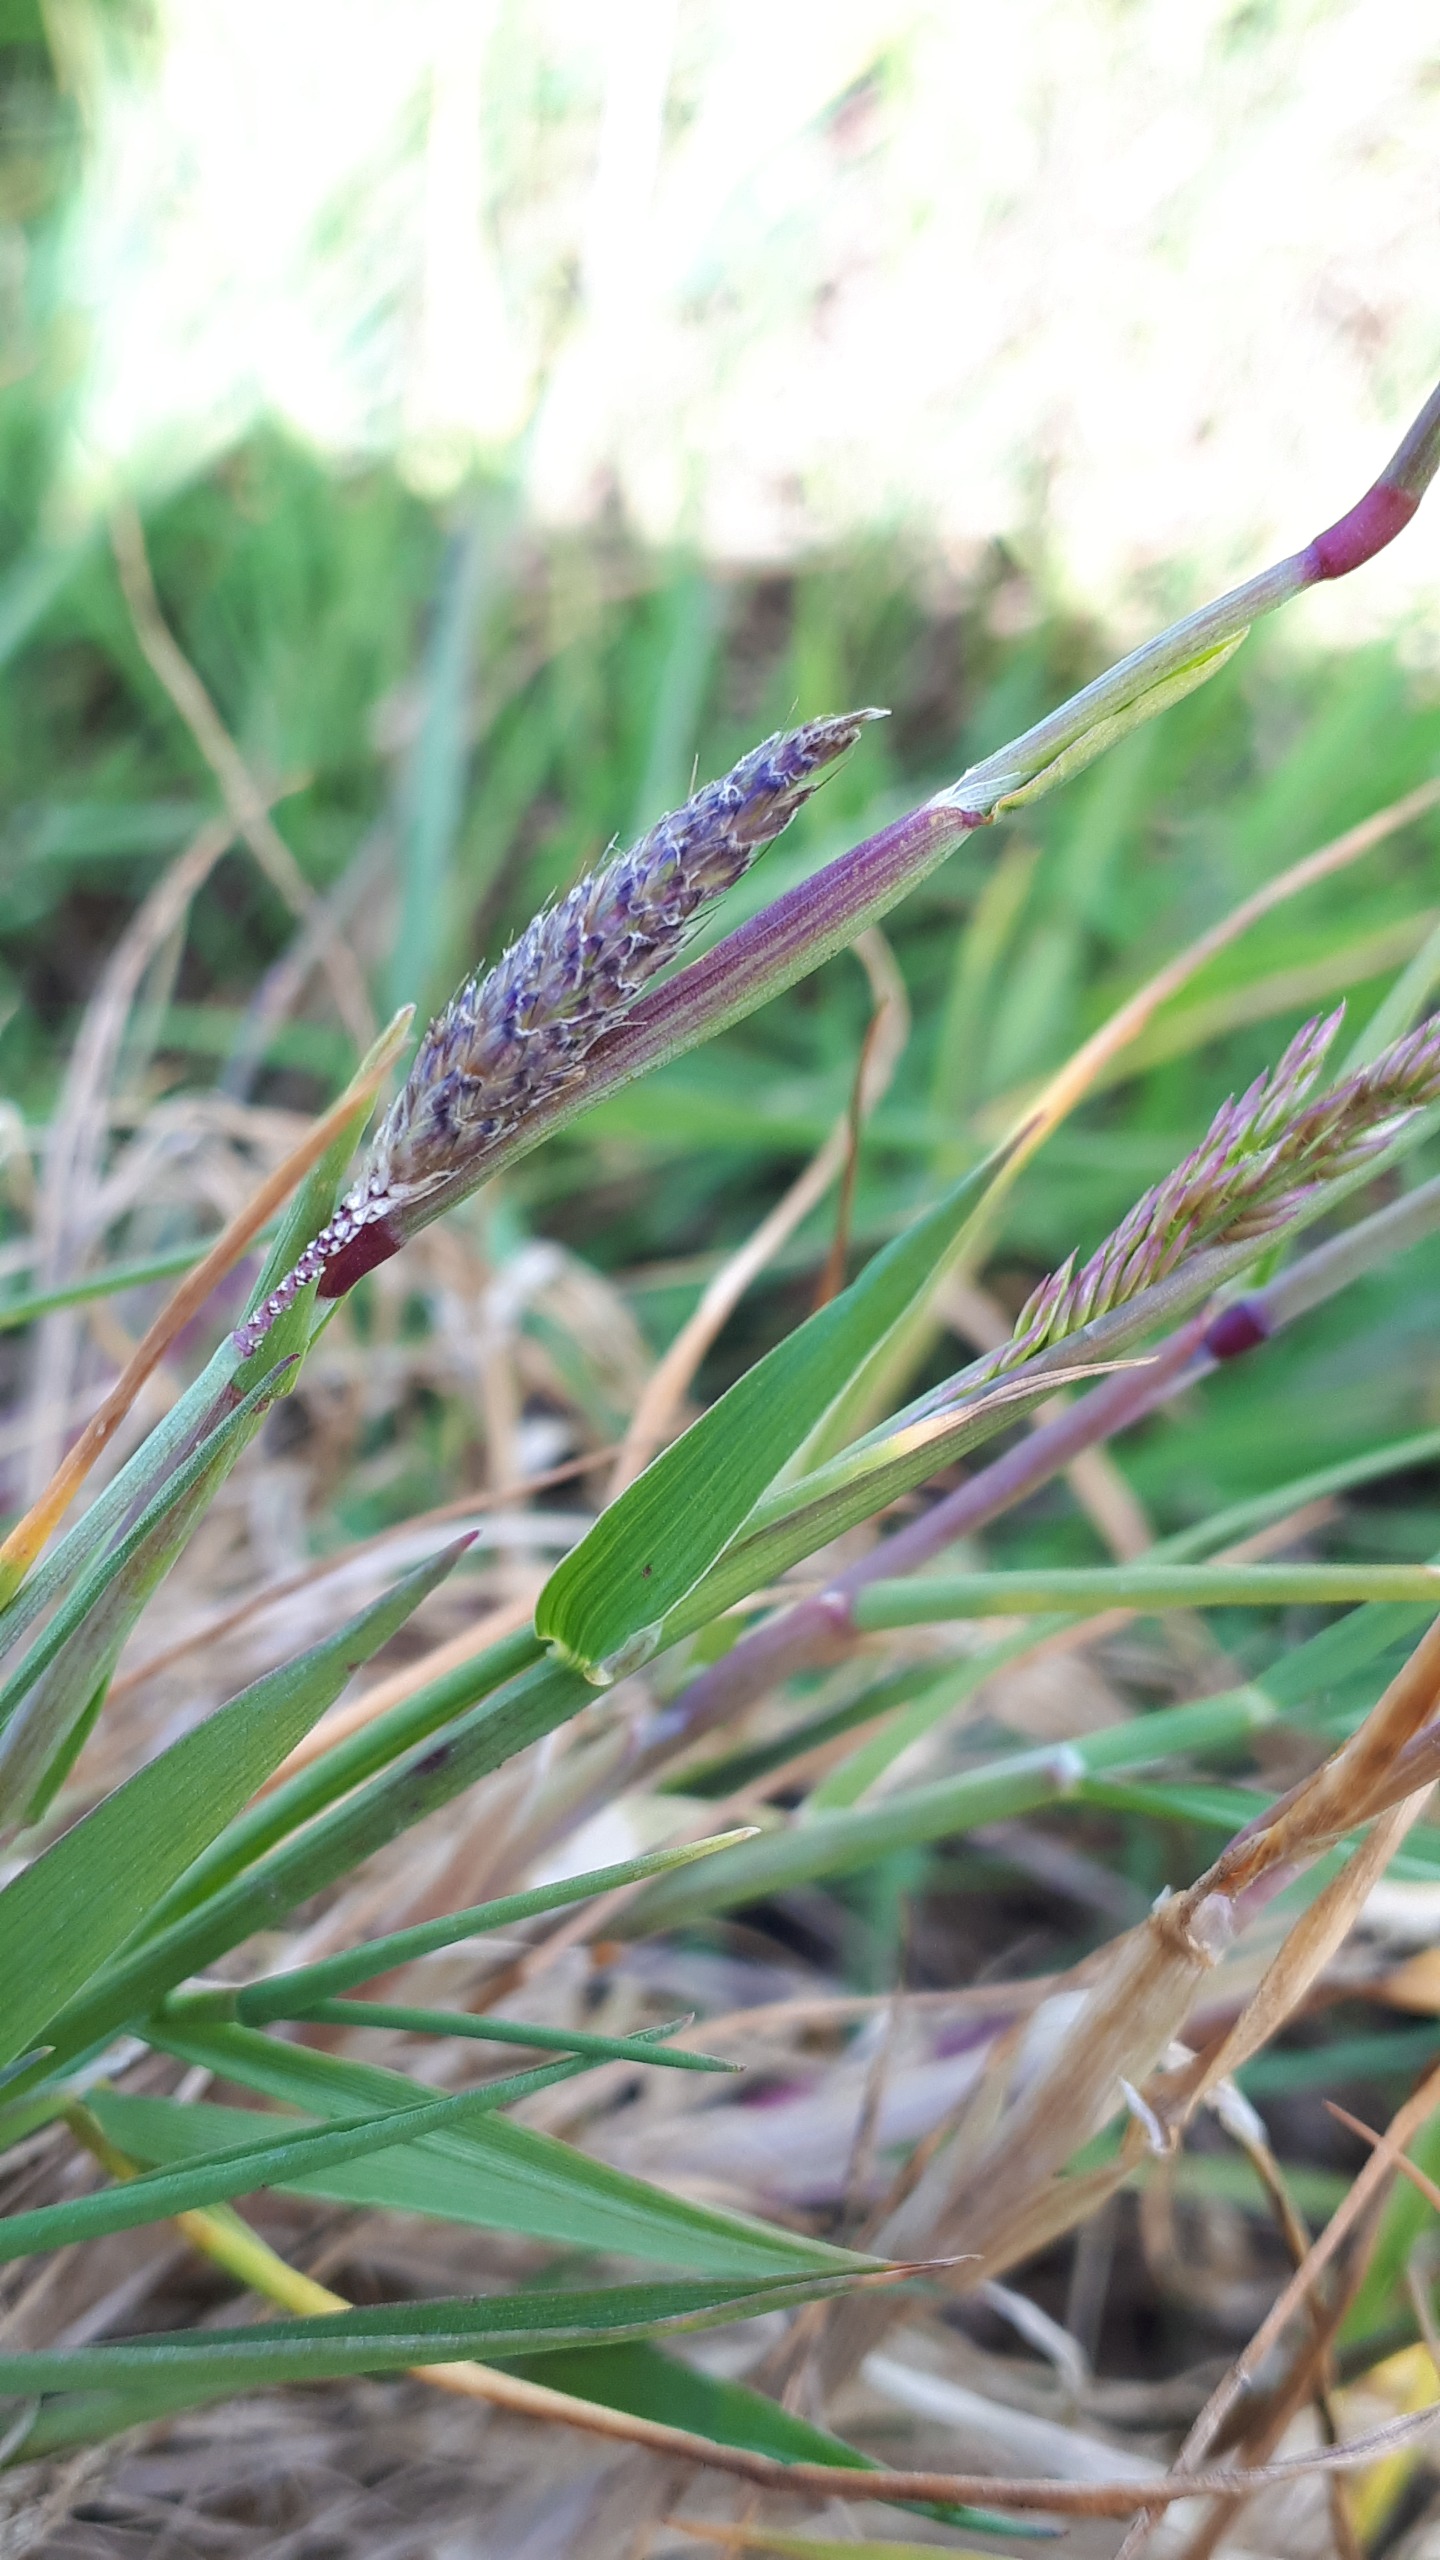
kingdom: Plantae
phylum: Tracheophyta
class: Liliopsida
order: Poales
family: Poaceae
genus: Alopecurus
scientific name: Alopecurus geniculatus
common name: Knæbøjet rævehale
